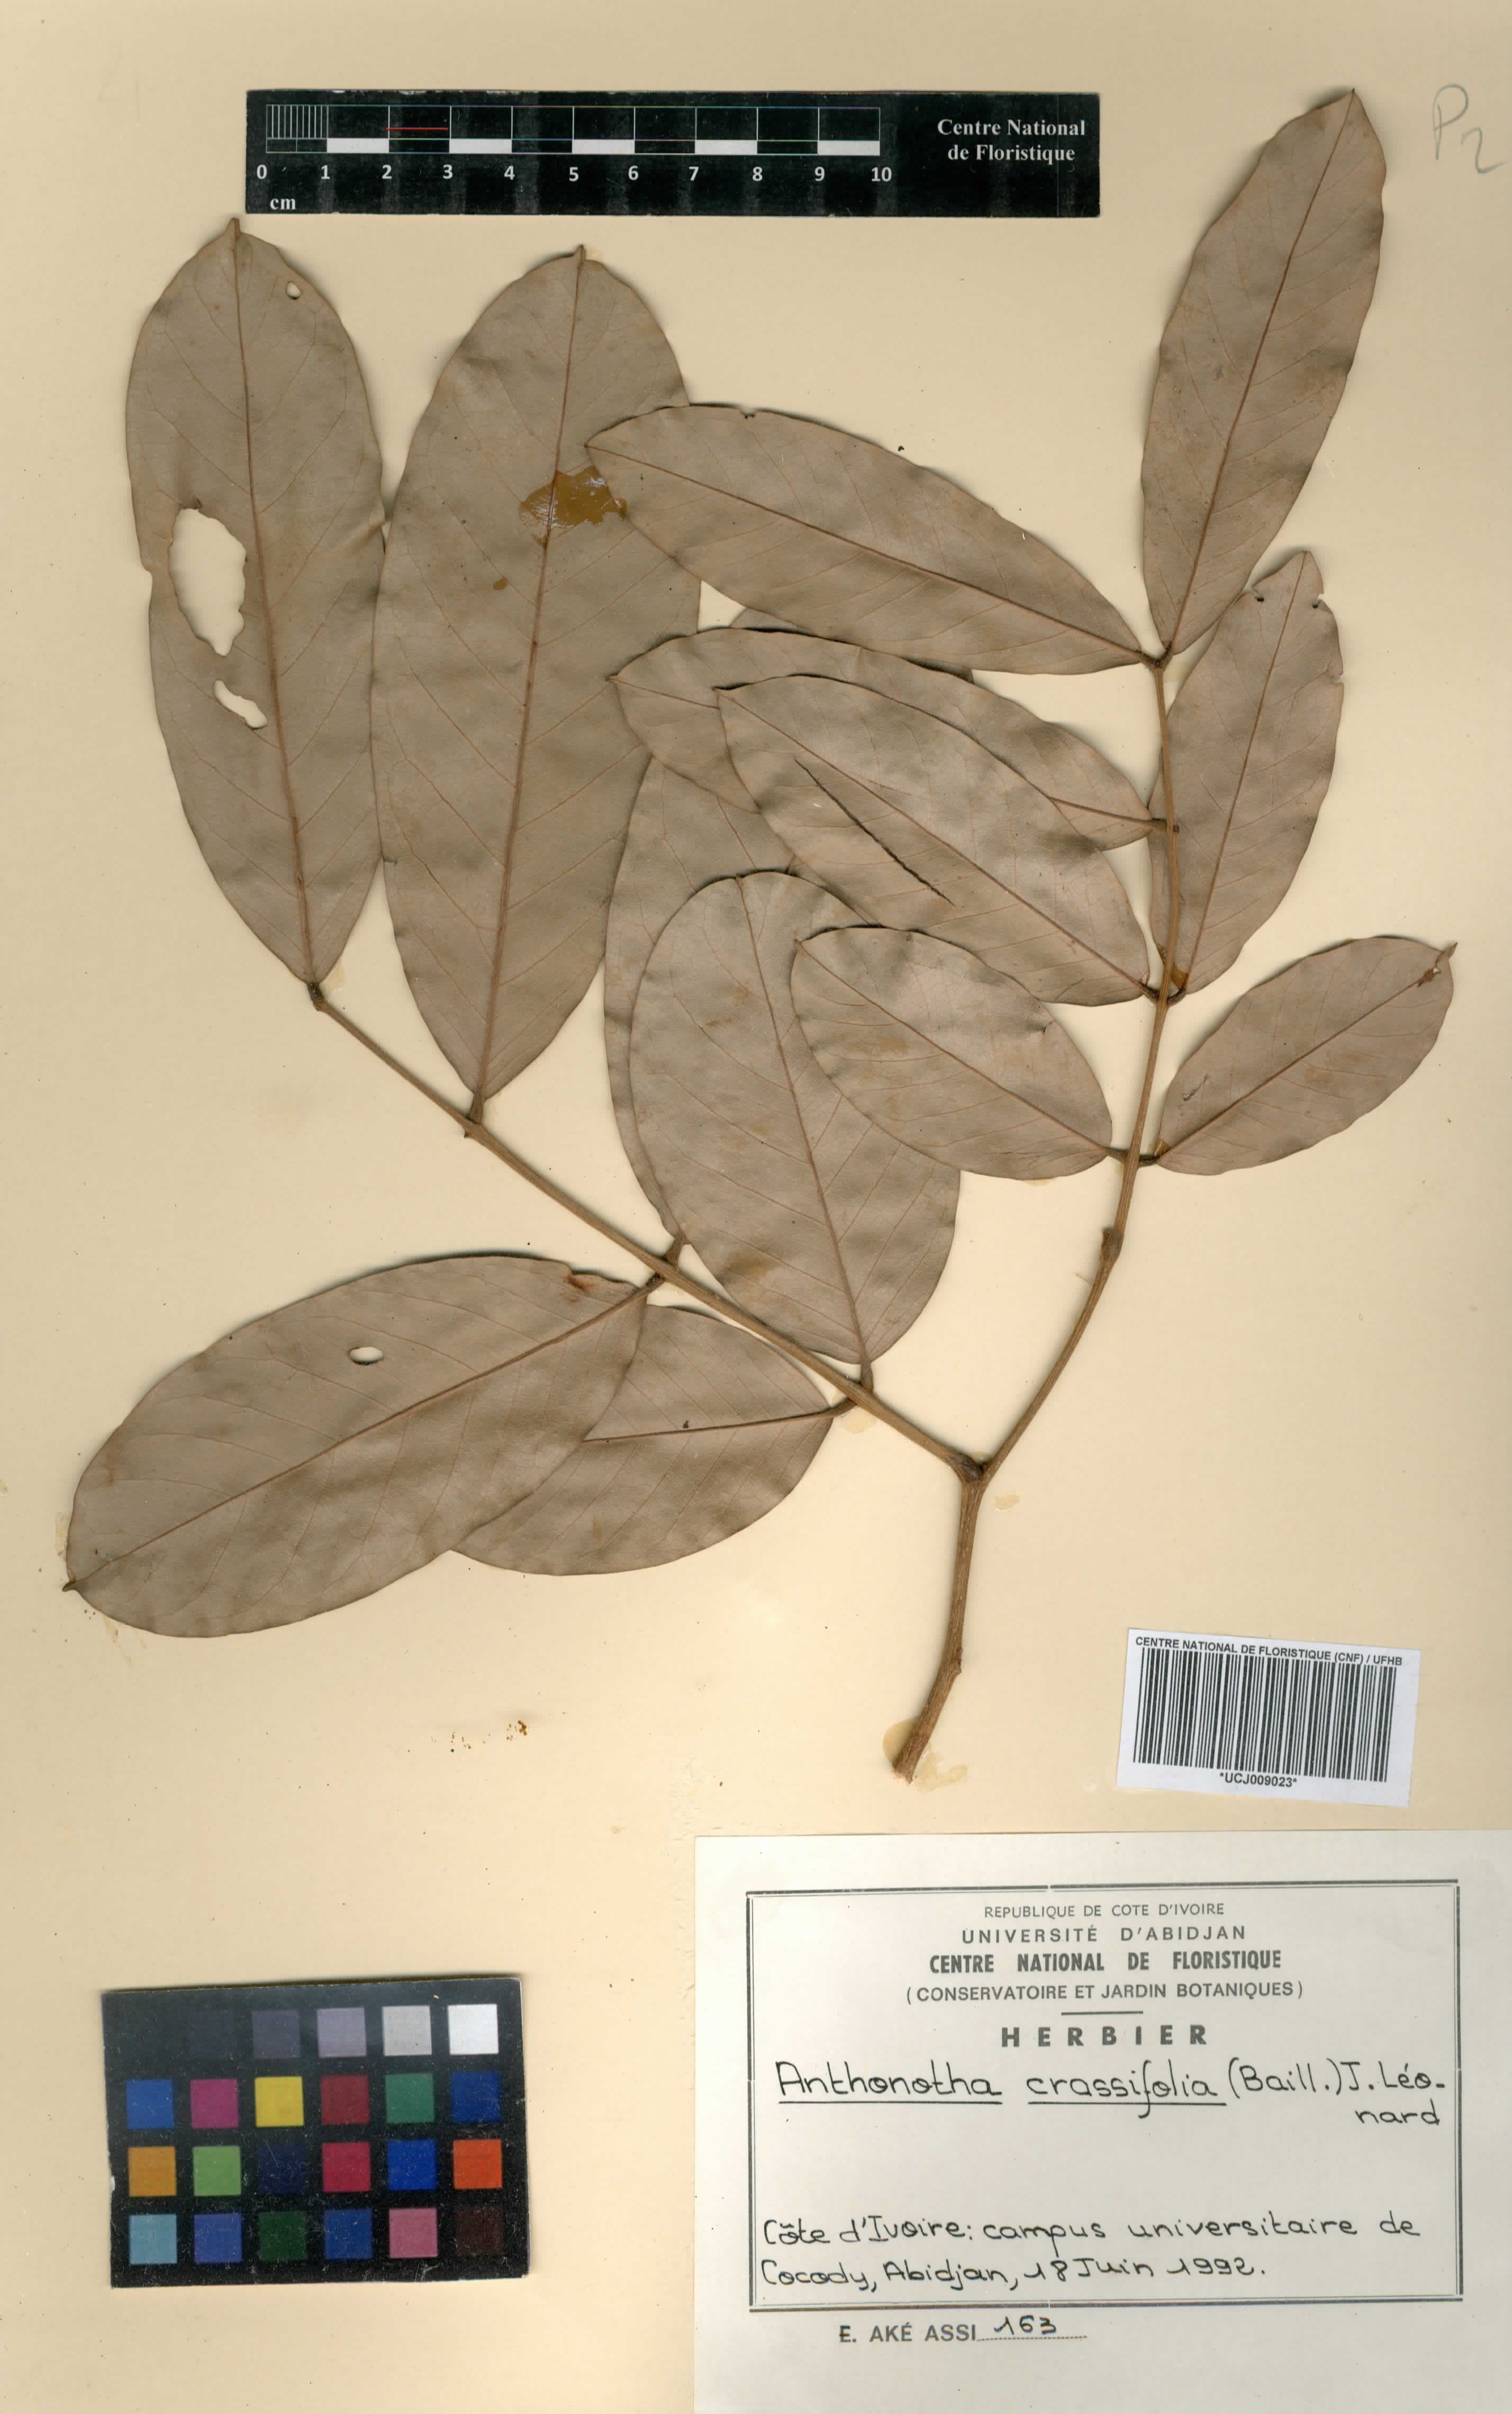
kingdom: Plantae
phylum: Tracheophyta
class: Magnoliopsida
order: Fabales
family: Fabaceae
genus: Anthonotha
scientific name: Anthonotha crassifolia
